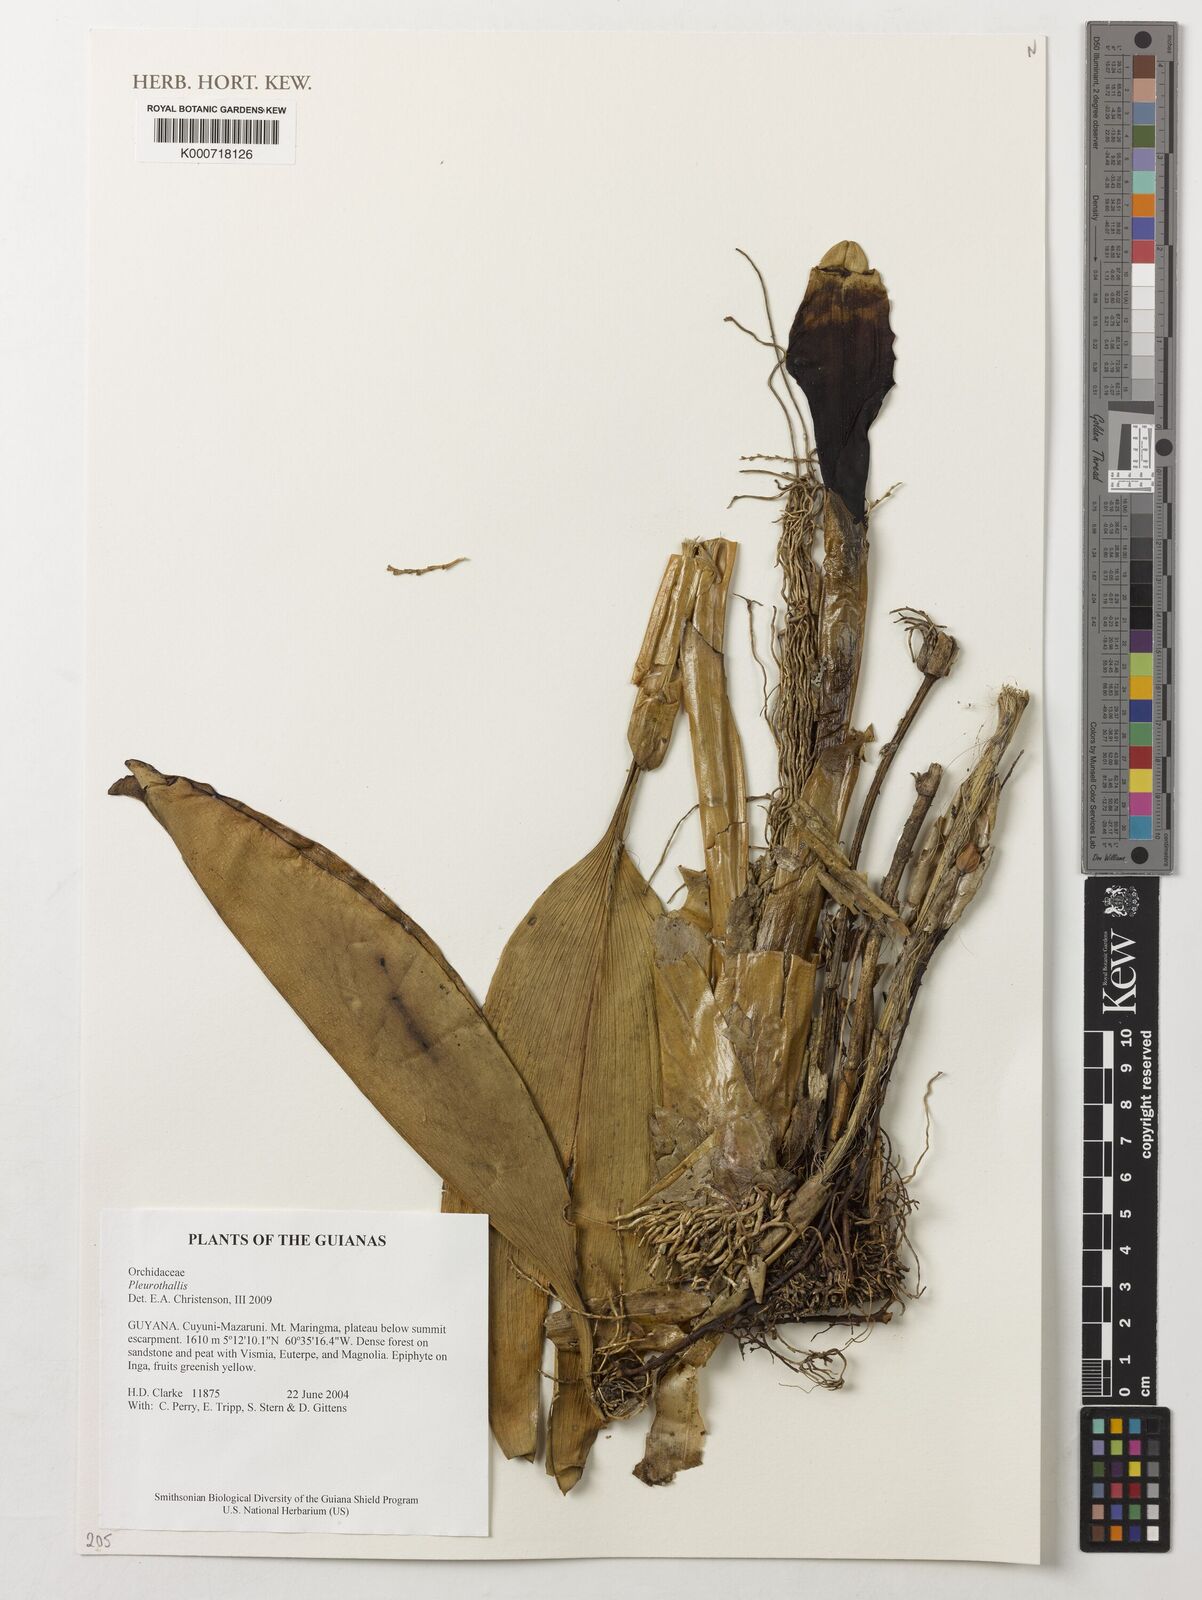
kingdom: Plantae
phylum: Tracheophyta
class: Liliopsida
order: Asparagales
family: Orchidaceae
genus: Pleurothallis
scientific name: Pleurothallis
